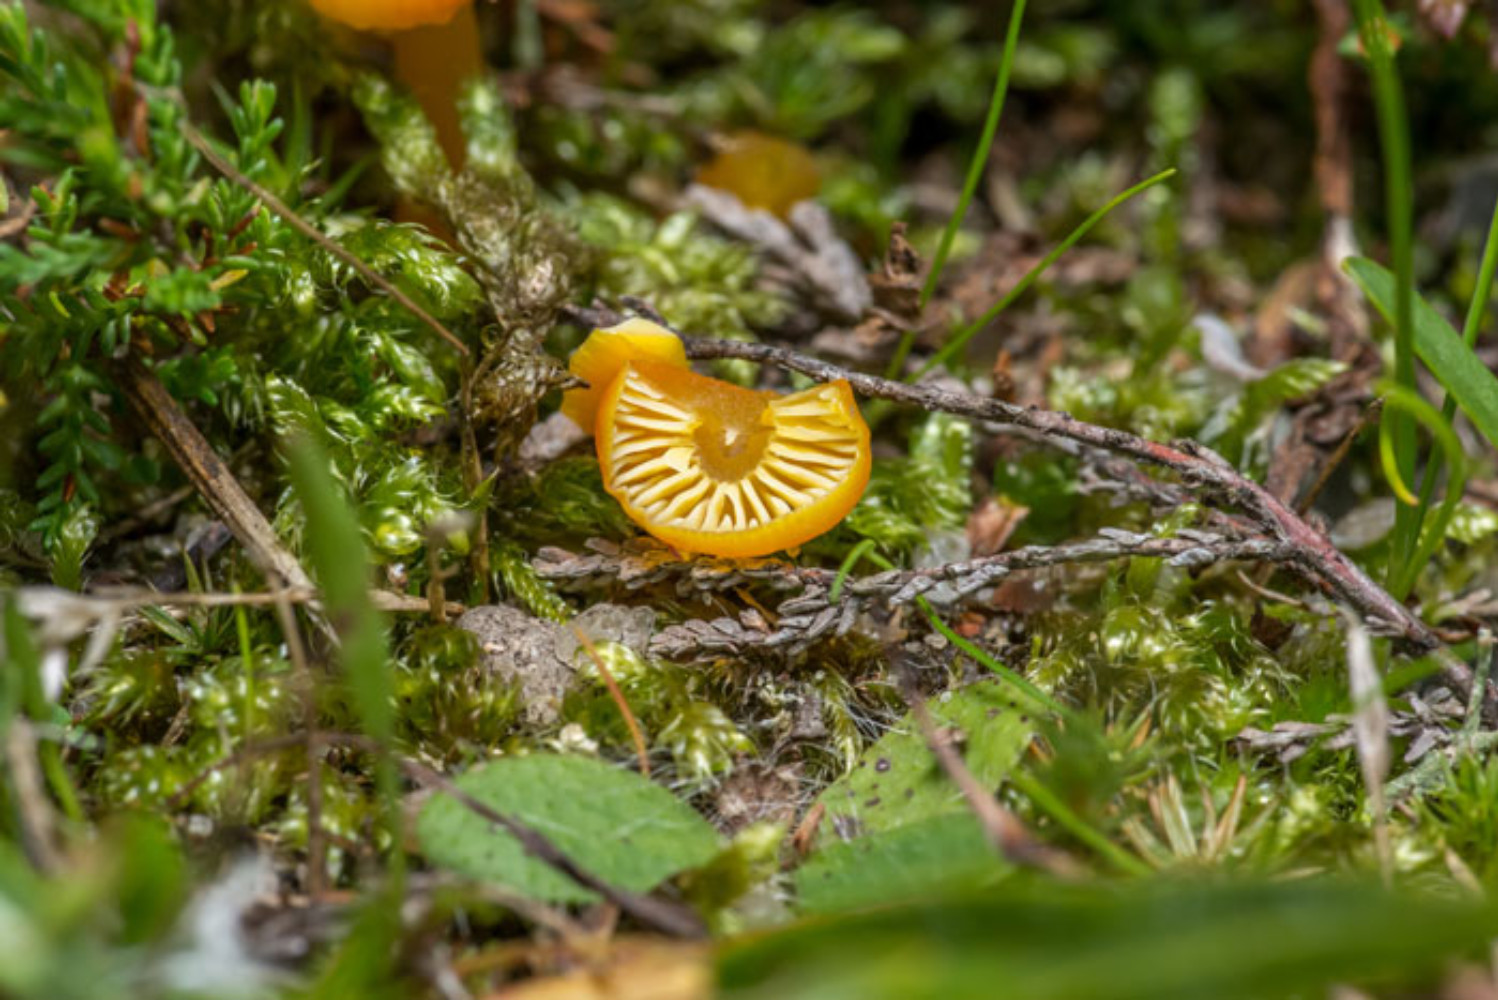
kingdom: Fungi
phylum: Basidiomycota
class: Agaricomycetes
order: Agaricales
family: Hygrophoraceae
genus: Hygrocybe
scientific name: Hygrocybe
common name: vokshat
